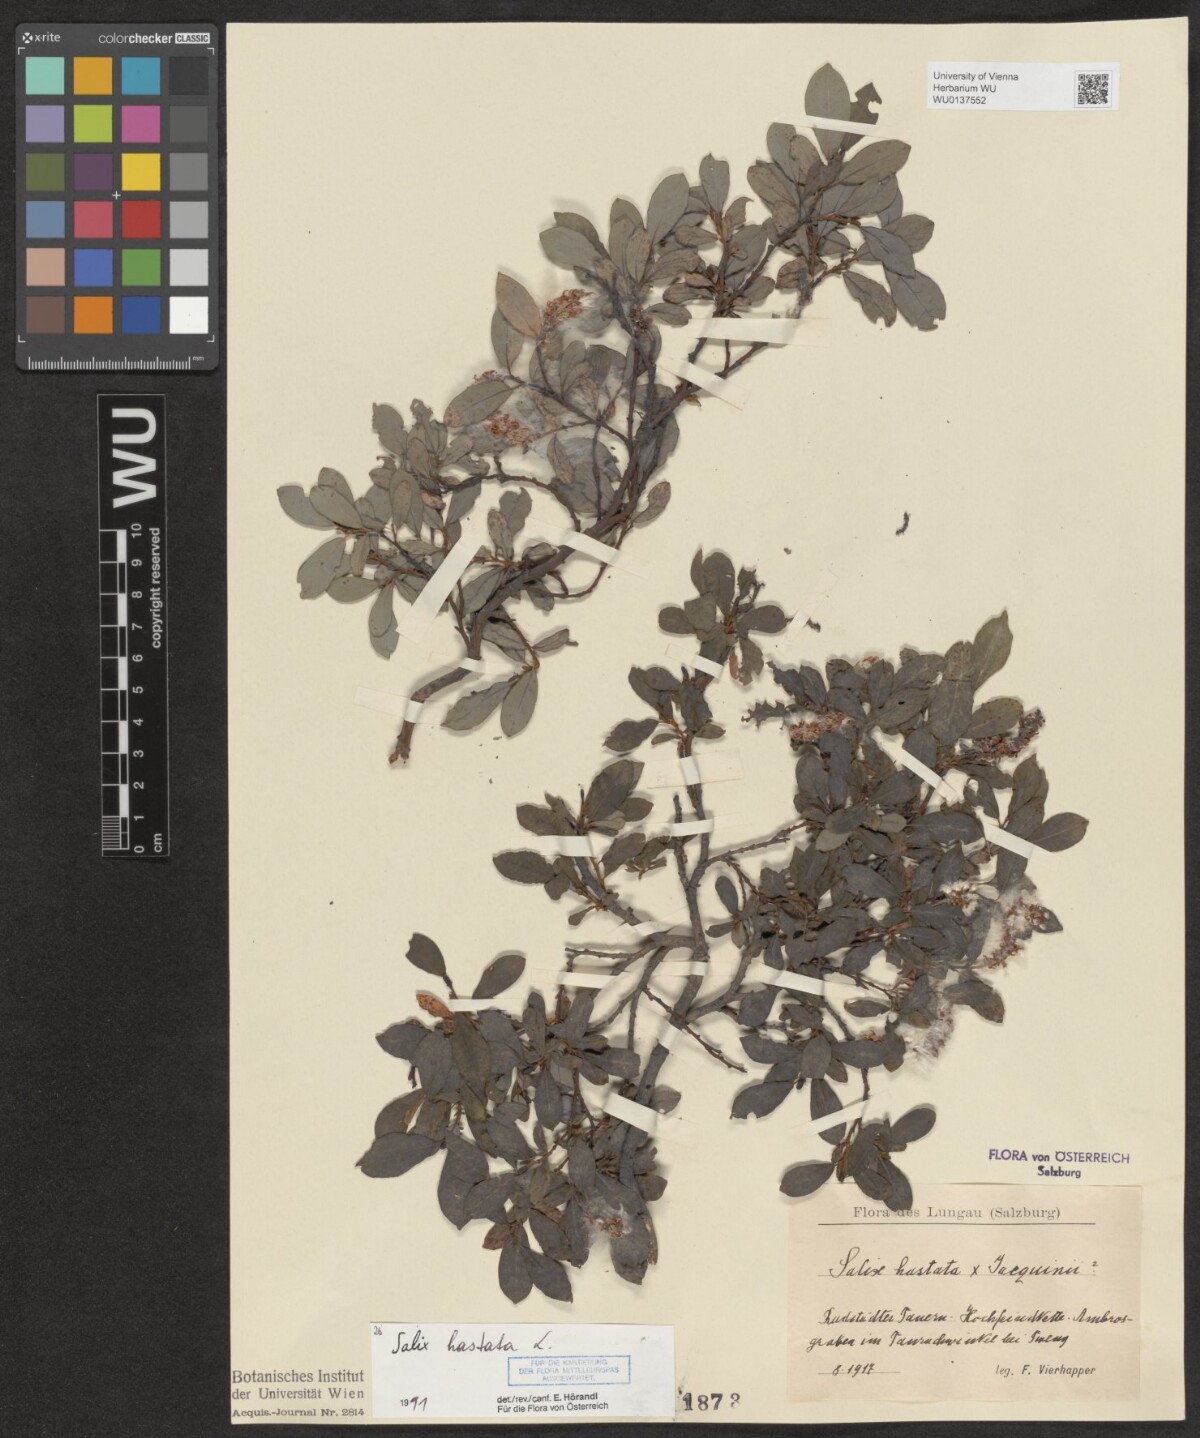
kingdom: Plantae
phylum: Tracheophyta
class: Magnoliopsida
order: Malpighiales
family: Salicaceae
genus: Salix
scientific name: Salix hastata
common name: Halberd willow
